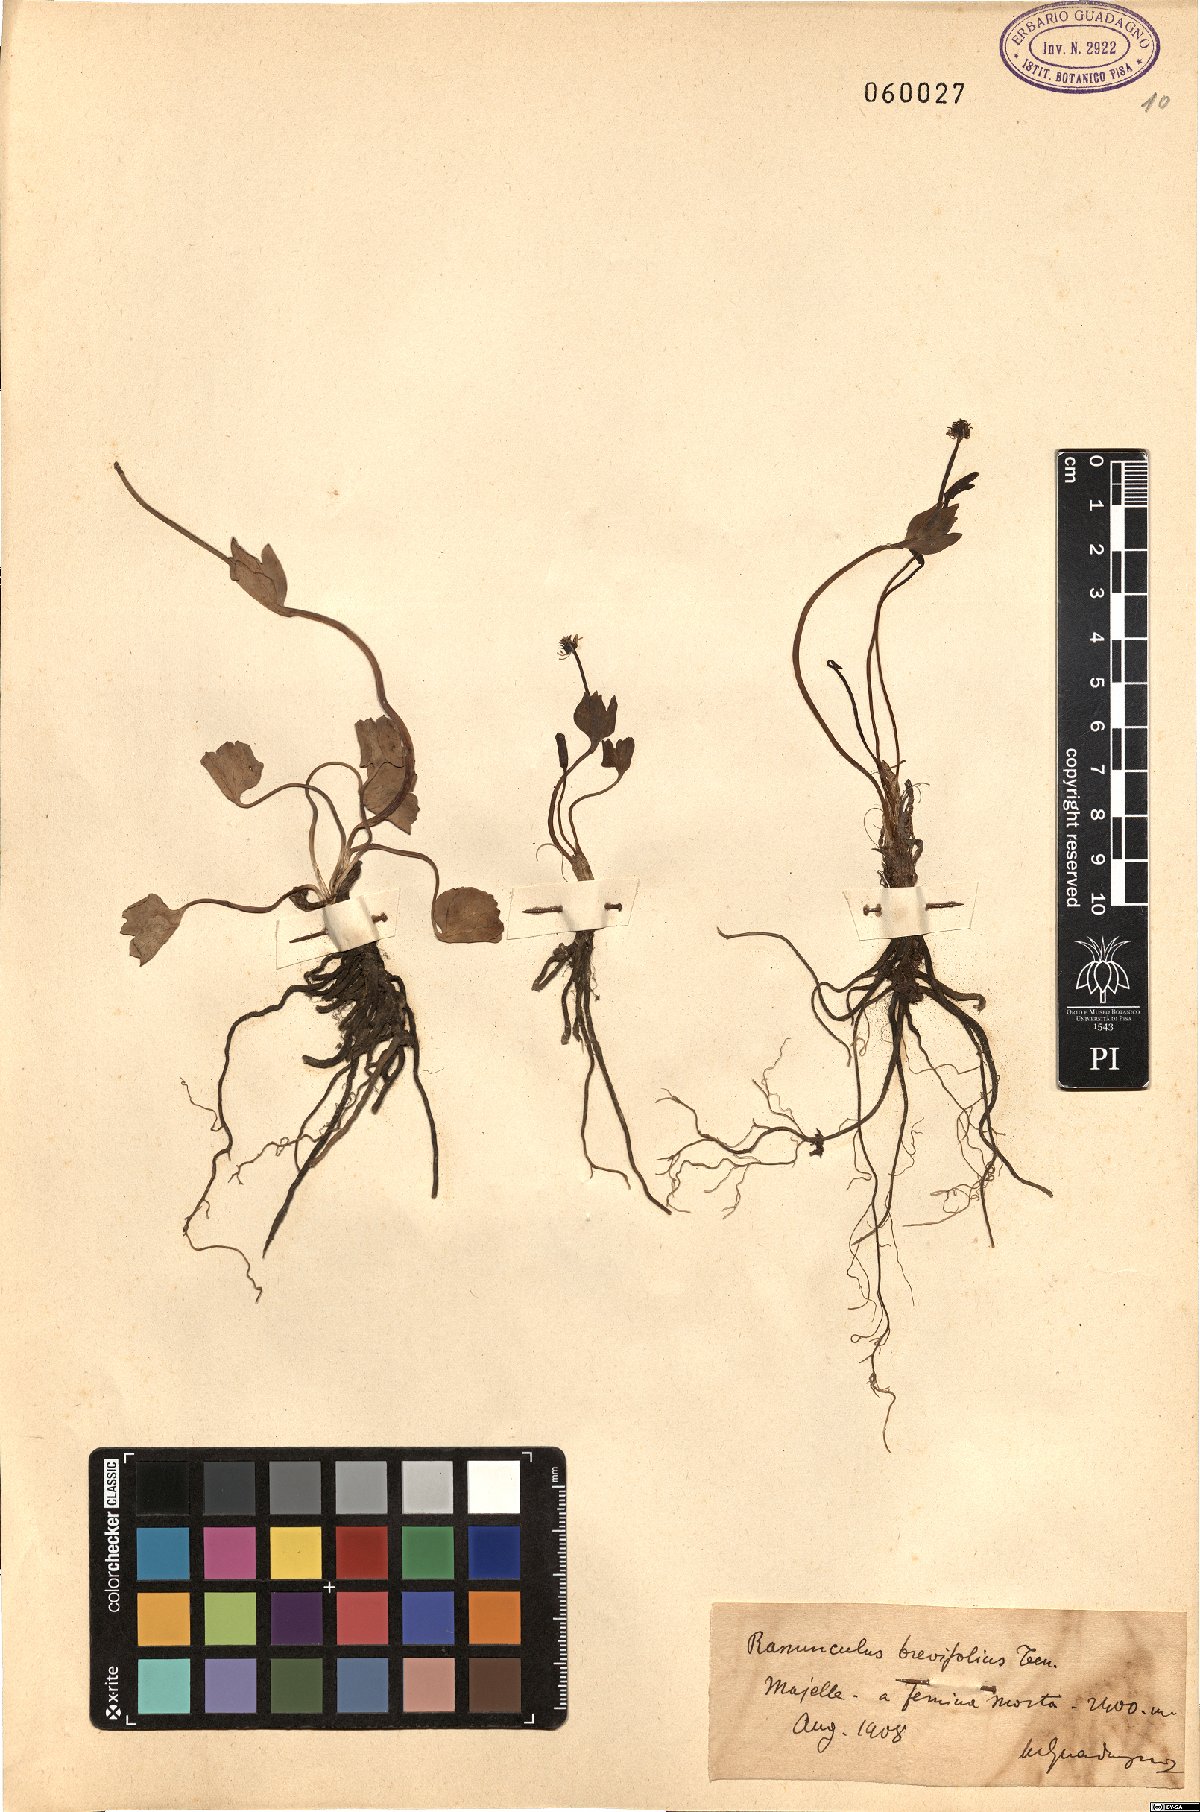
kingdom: Plantae
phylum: Tracheophyta
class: Magnoliopsida
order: Ranunculales
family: Ranunculaceae
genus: Ranunculus
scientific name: Ranunculus brevifolius
